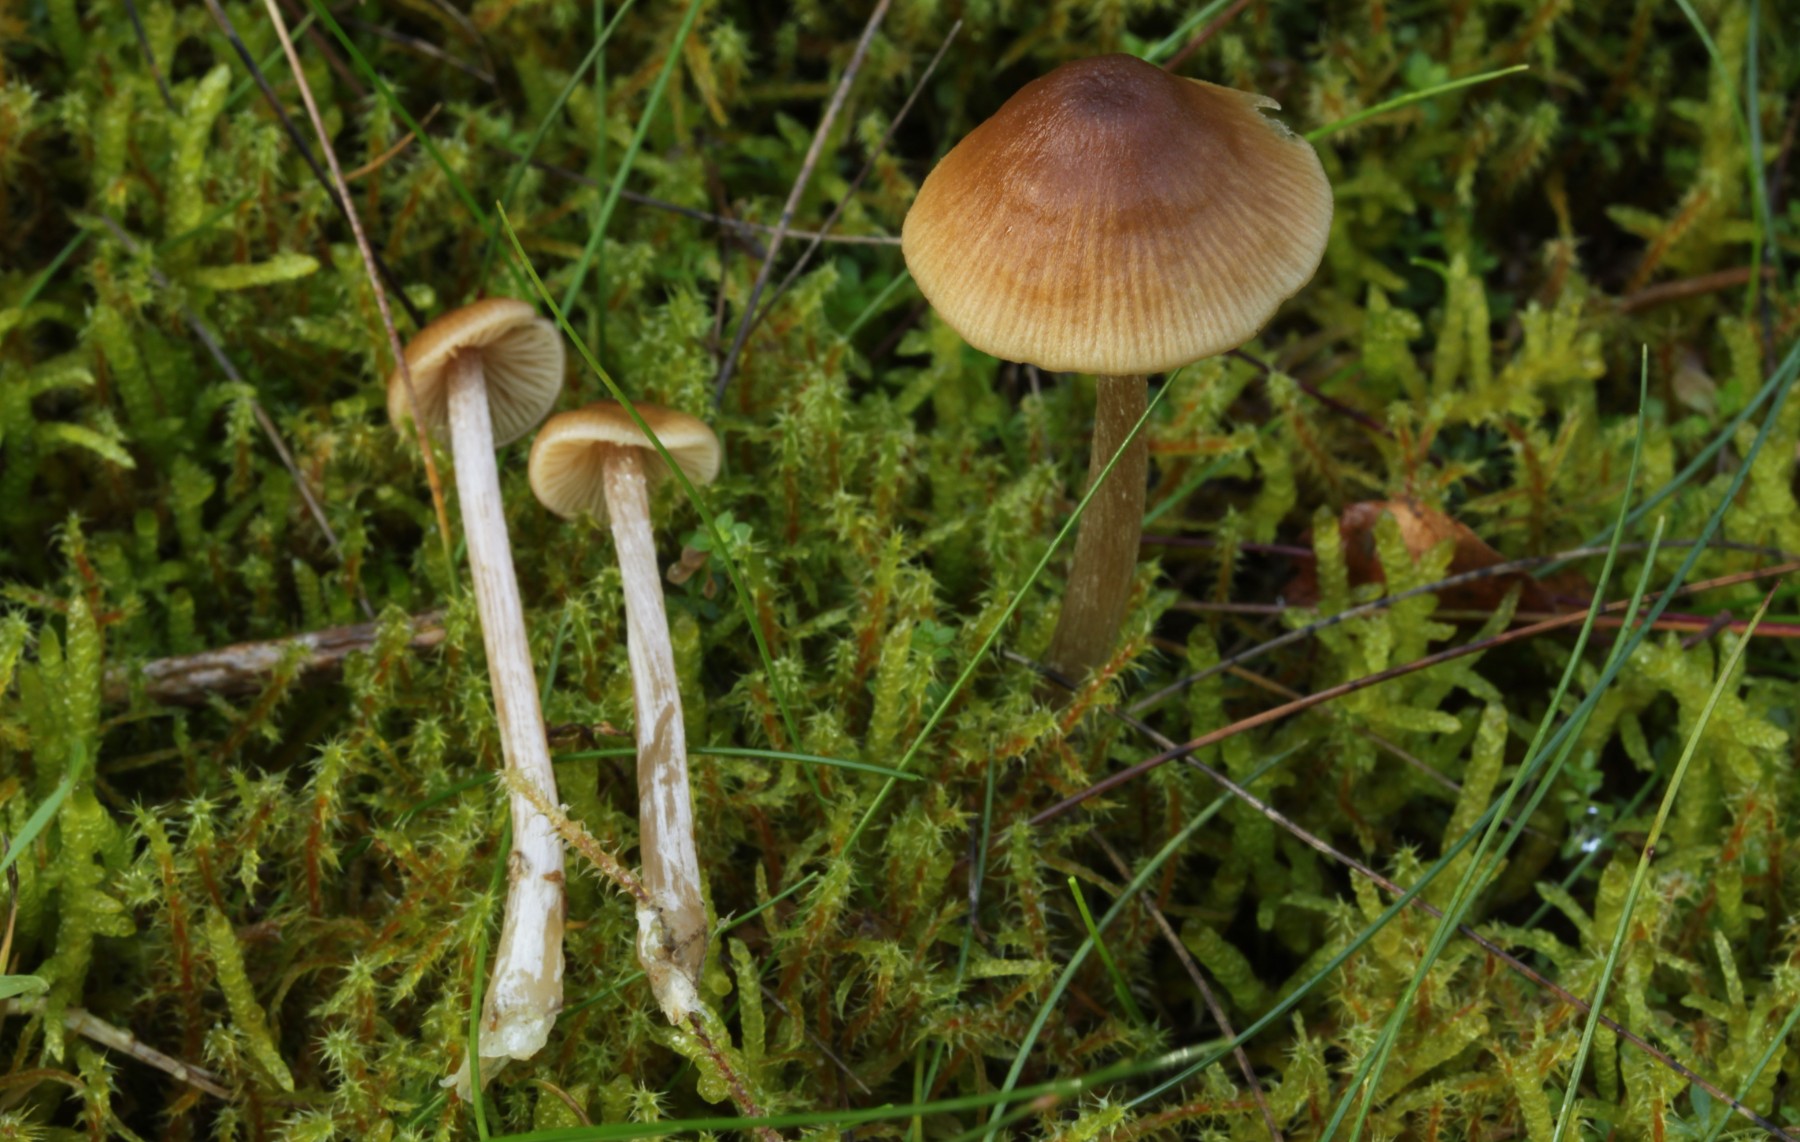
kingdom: Fungi
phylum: Basidiomycota
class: Agaricomycetes
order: Agaricales
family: Entolomataceae
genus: Entoloma
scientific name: Entoloma cetratum
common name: voks-rødblad
